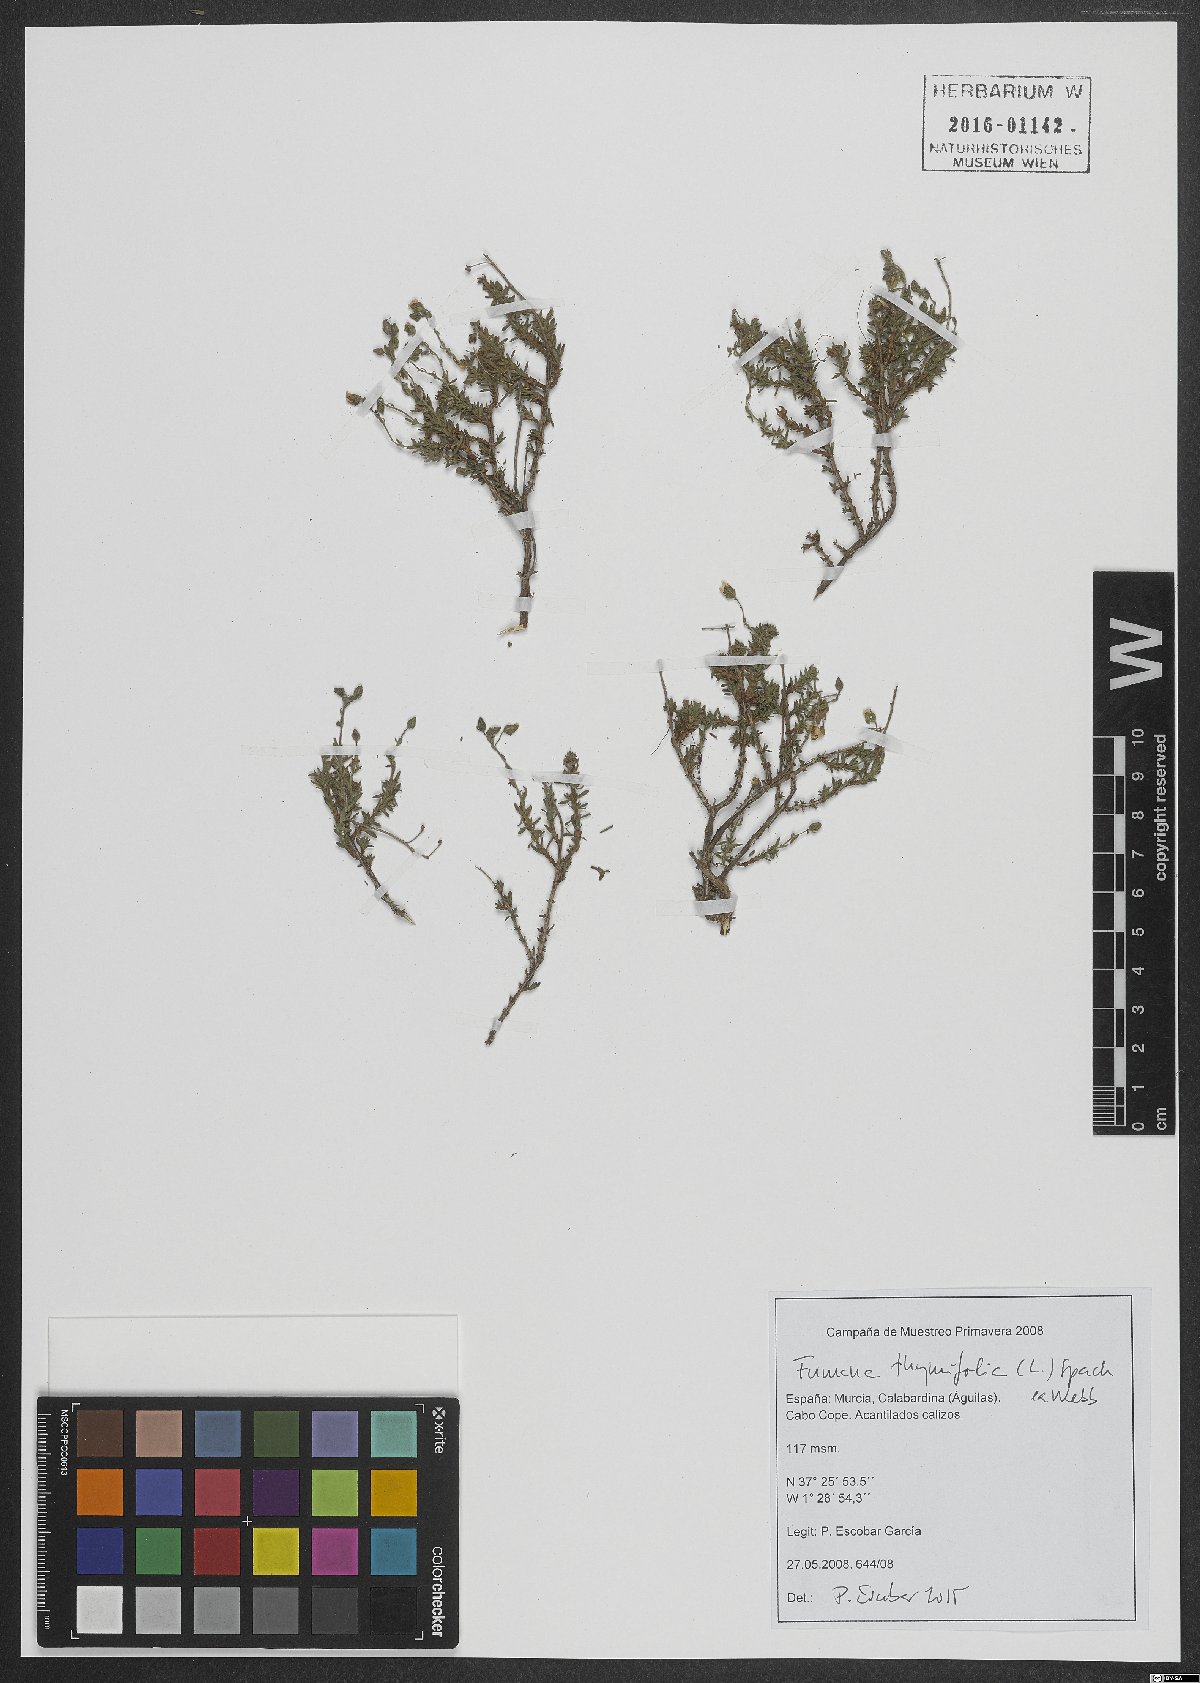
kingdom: Plantae
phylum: Tracheophyta
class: Magnoliopsida
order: Malvales
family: Cistaceae
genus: Fumana
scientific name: Fumana thymifolia
